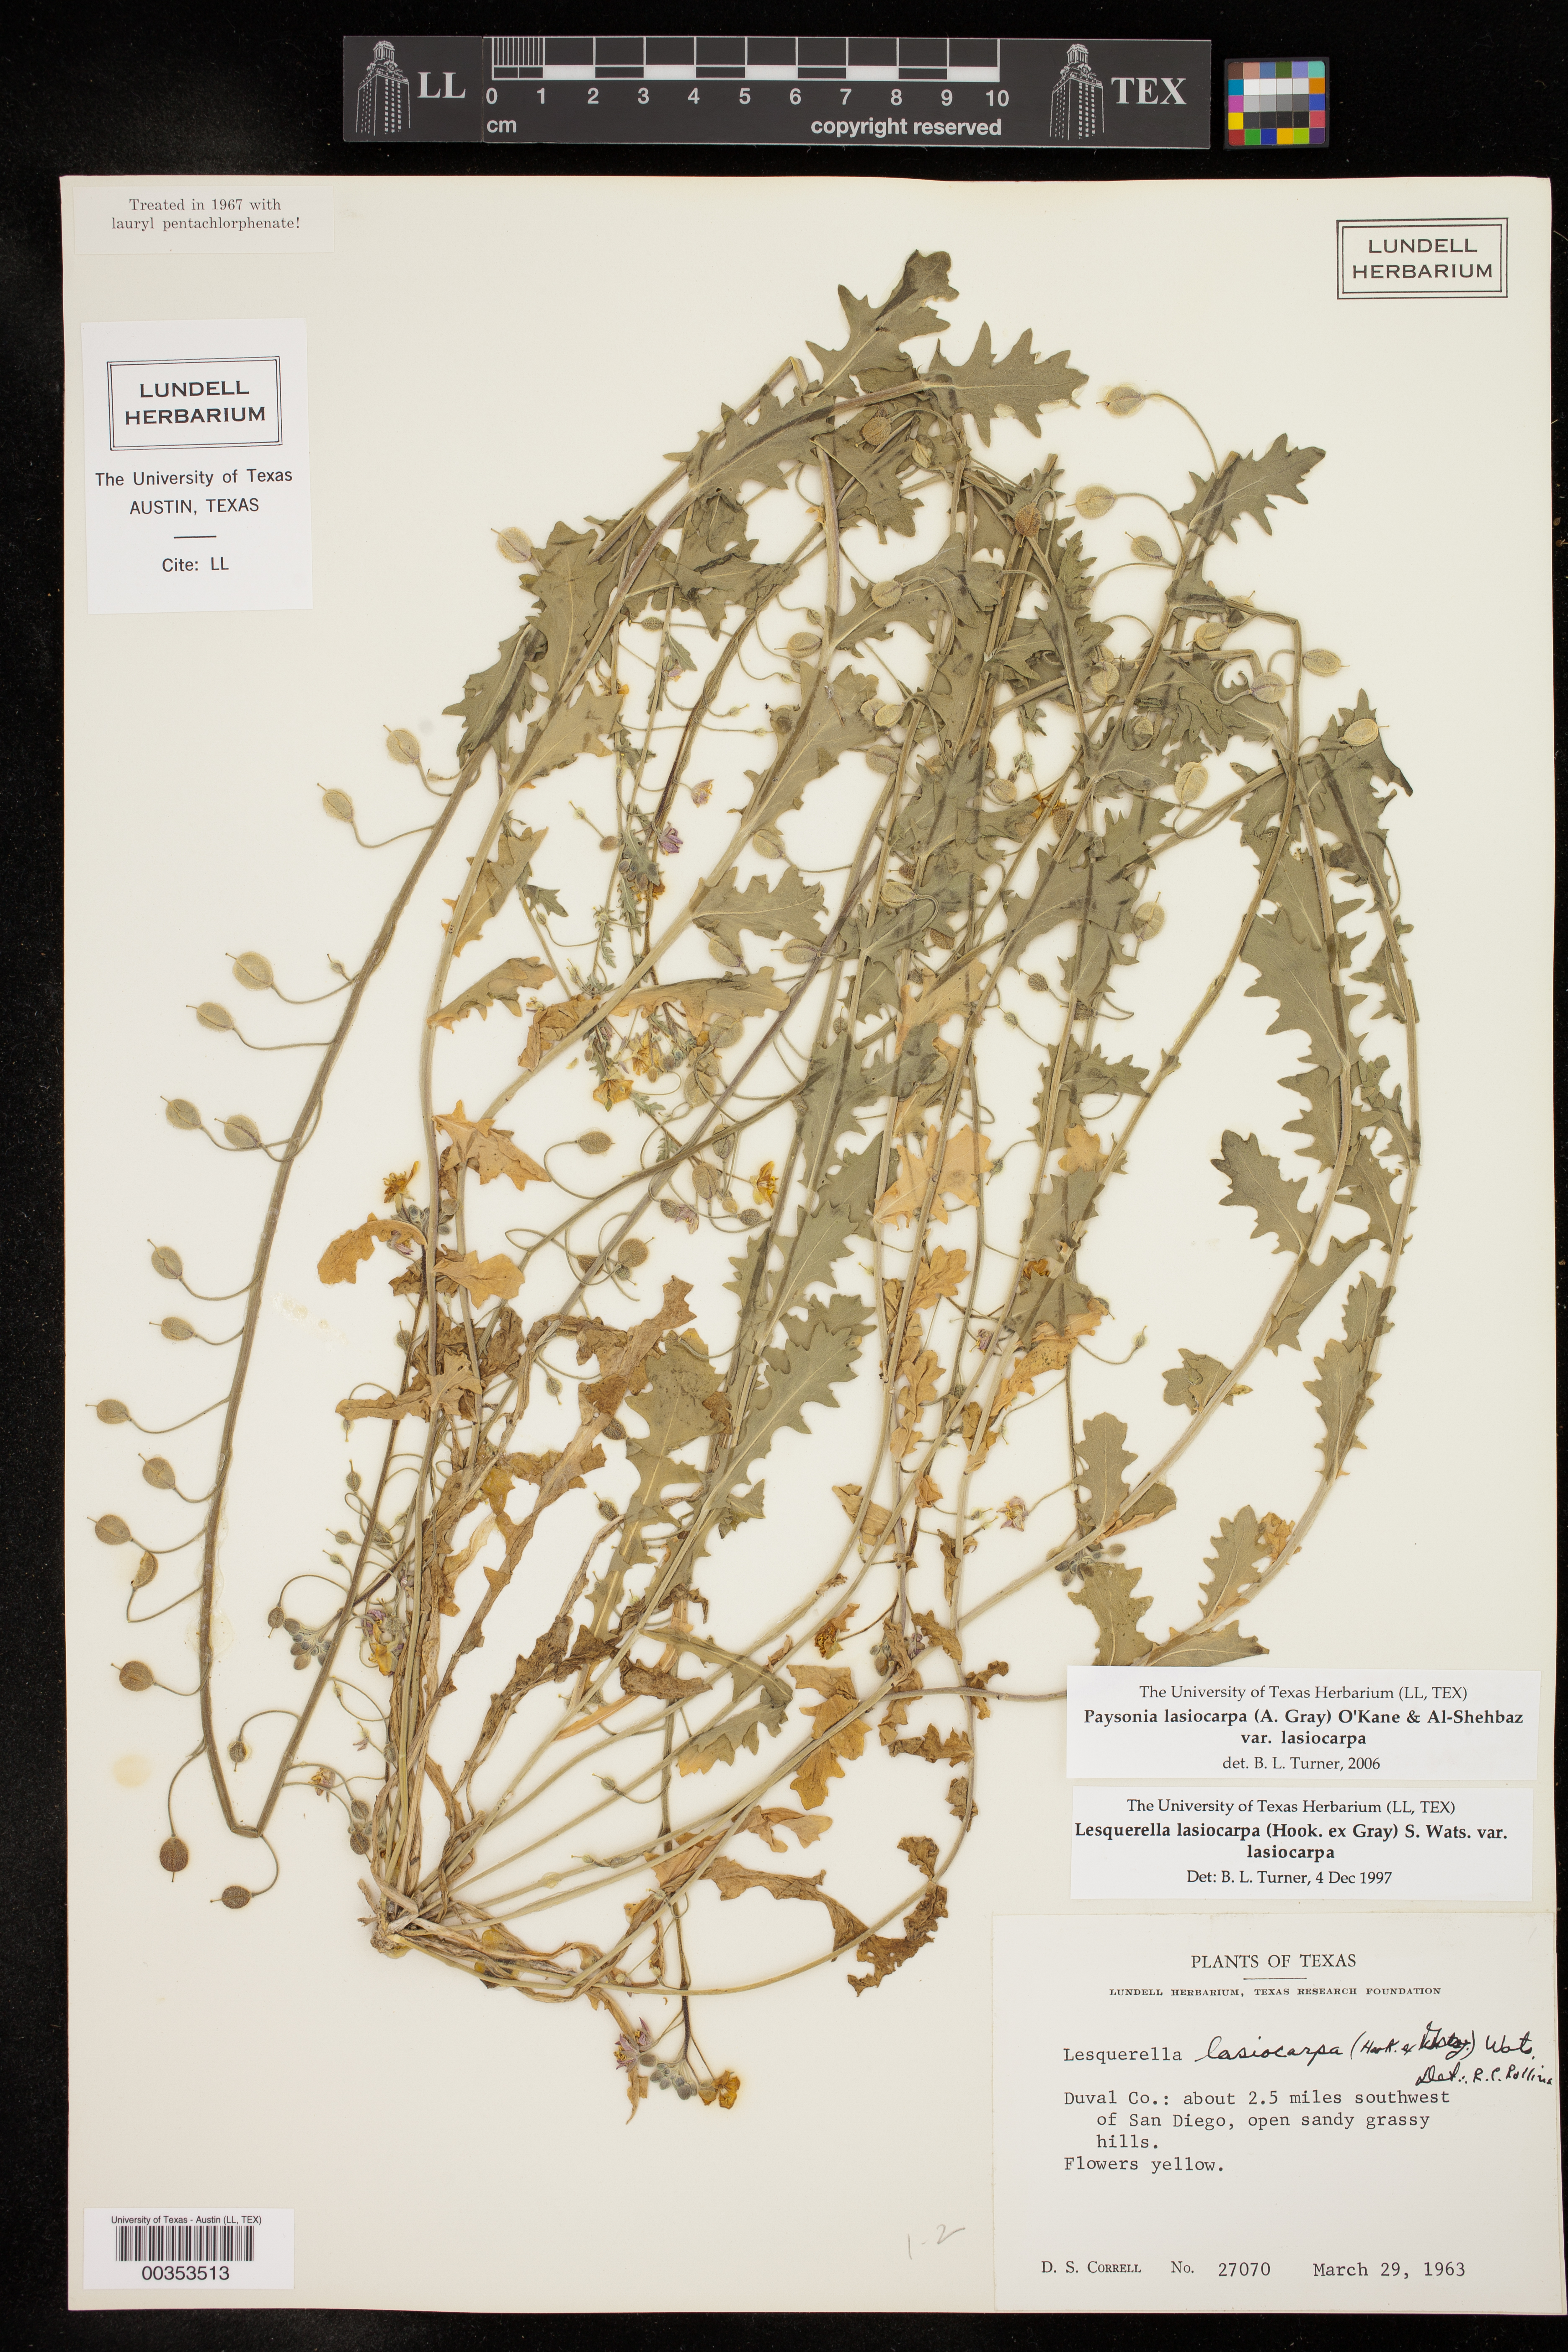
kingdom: Plantae
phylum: Tracheophyta
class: Magnoliopsida
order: Brassicales
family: Brassicaceae
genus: Paysonia
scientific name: Paysonia lasiocarpa
